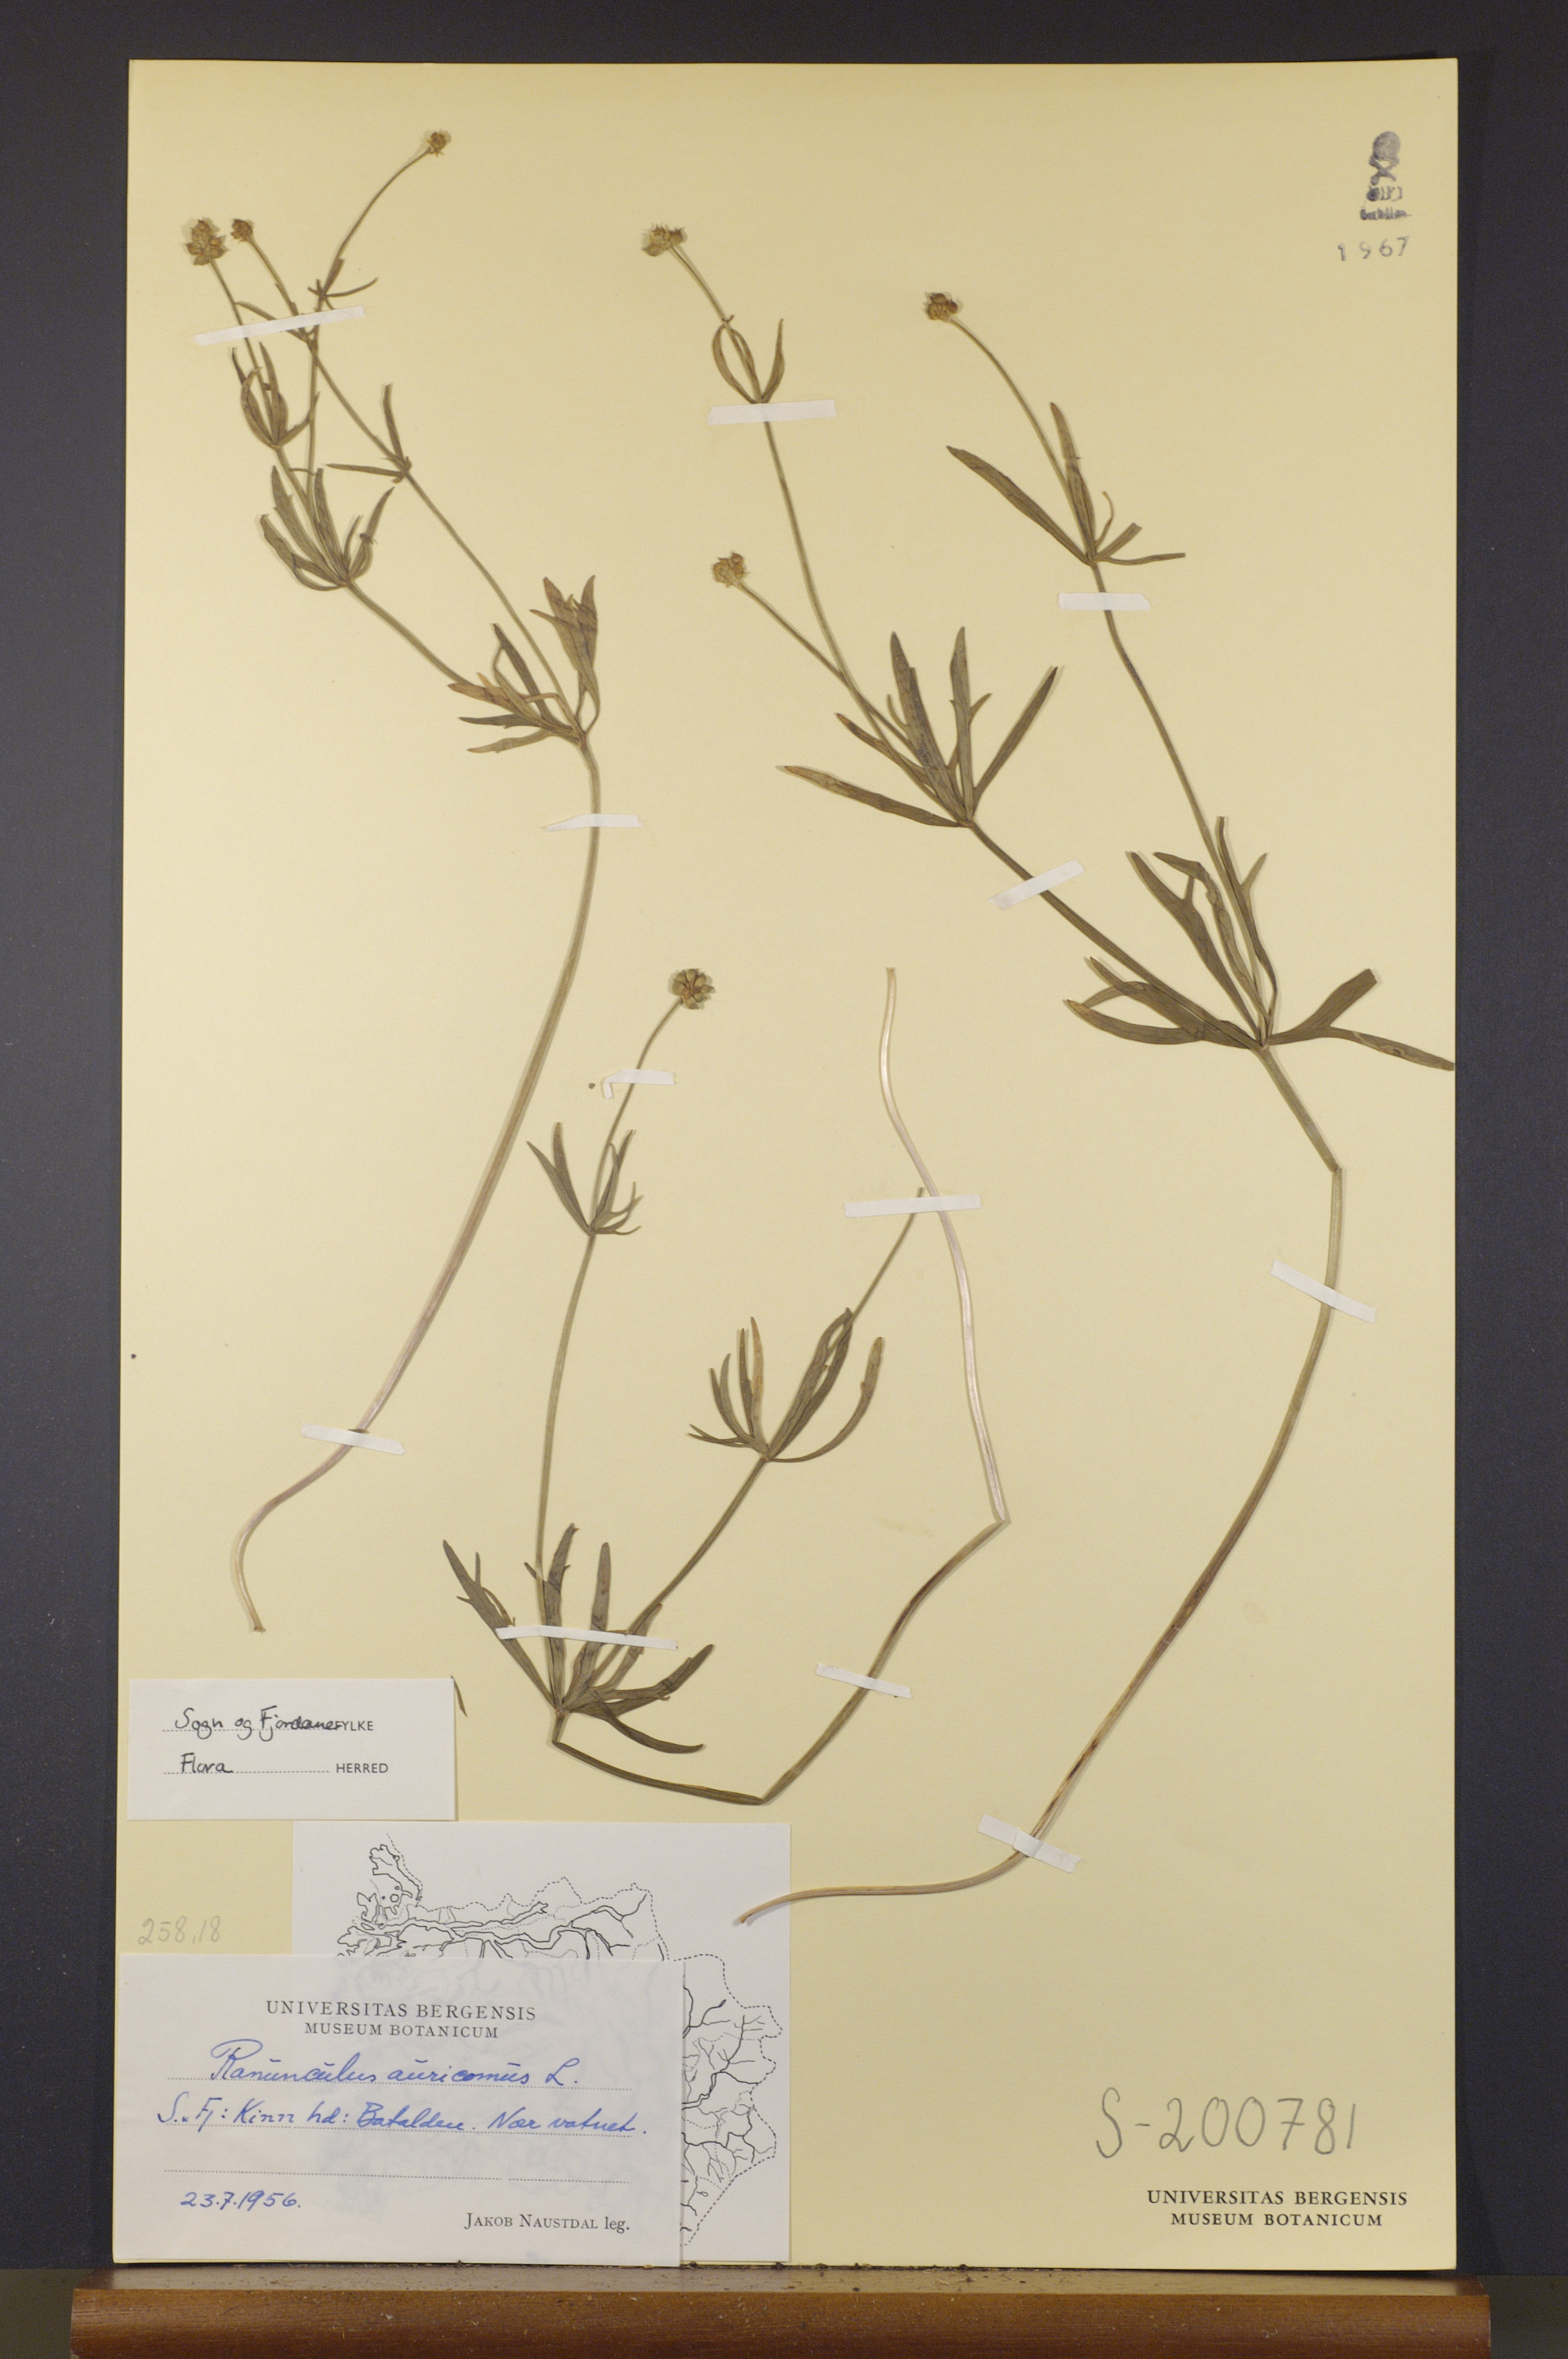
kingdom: Plantae
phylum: Tracheophyta
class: Magnoliopsida
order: Ranunculales
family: Ranunculaceae
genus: Ranunculus
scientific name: Ranunculus auricomus
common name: Goldilocks buttercup
